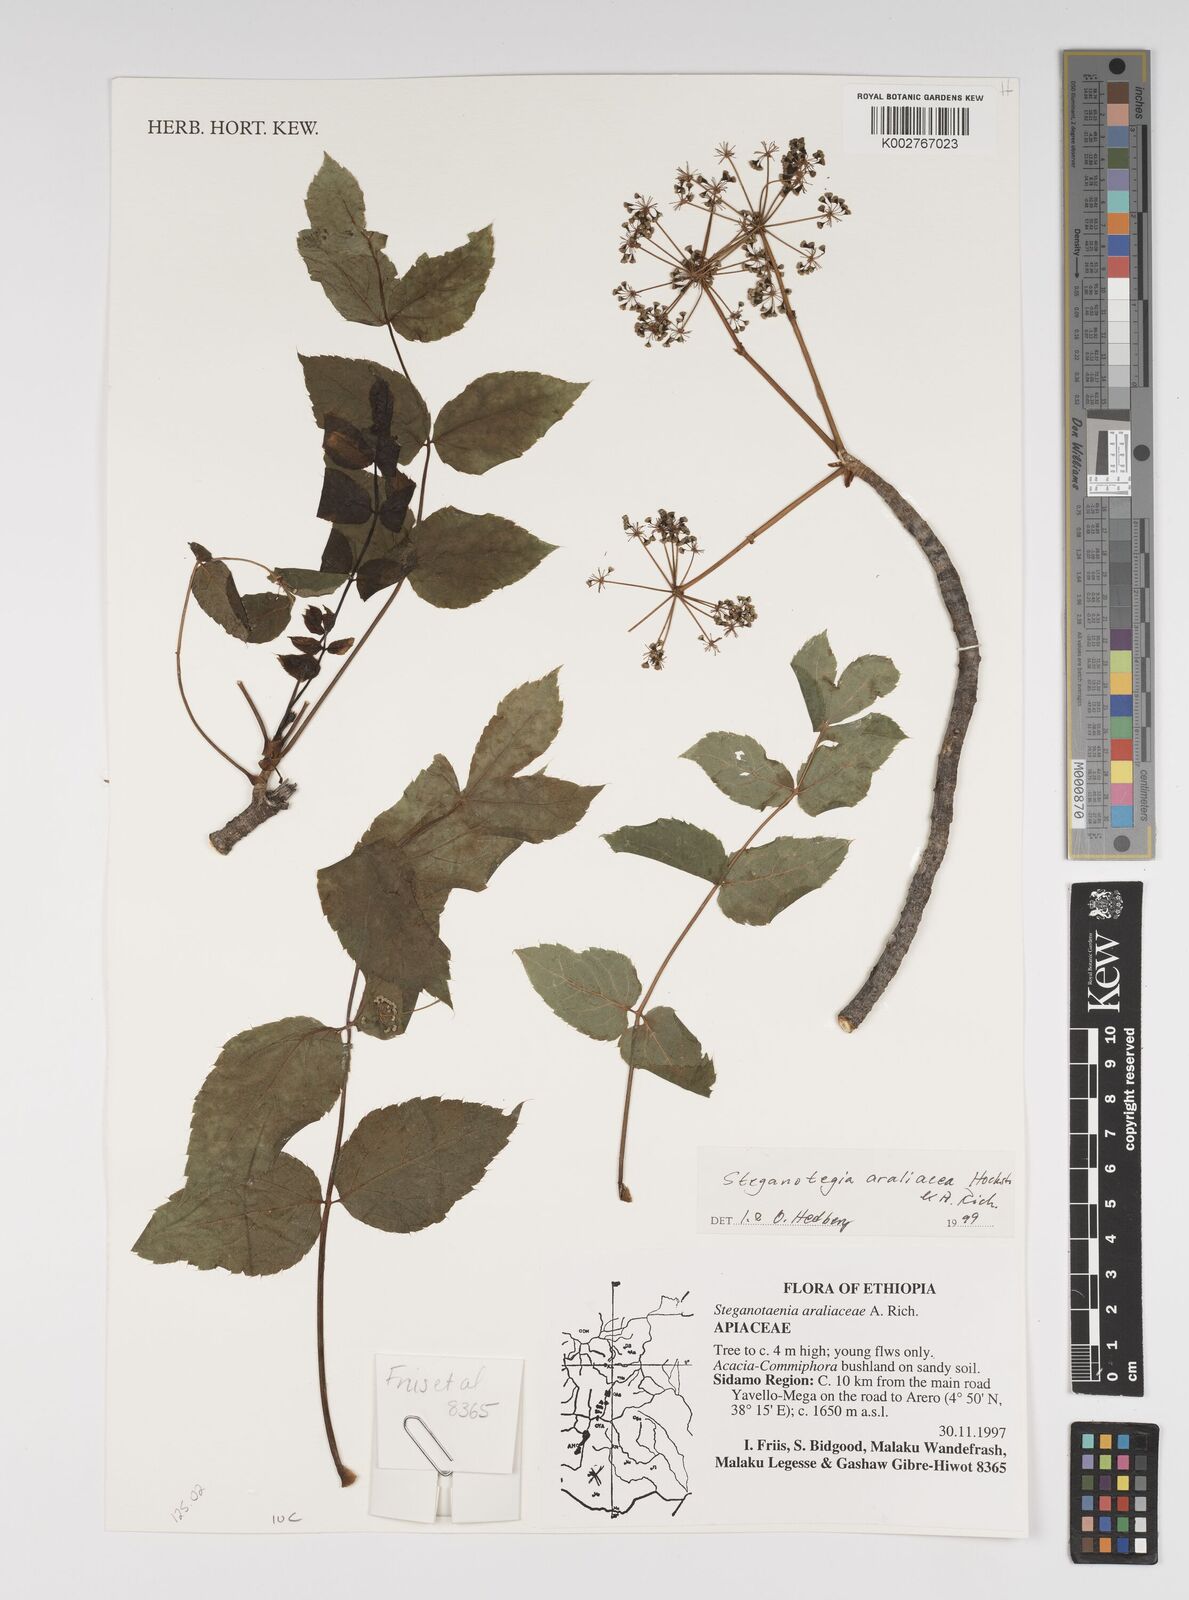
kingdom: Plantae
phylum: Tracheophyta
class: Magnoliopsida
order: Apiales
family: Apiaceae
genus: Steganotaenia
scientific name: Steganotaenia araliacea
